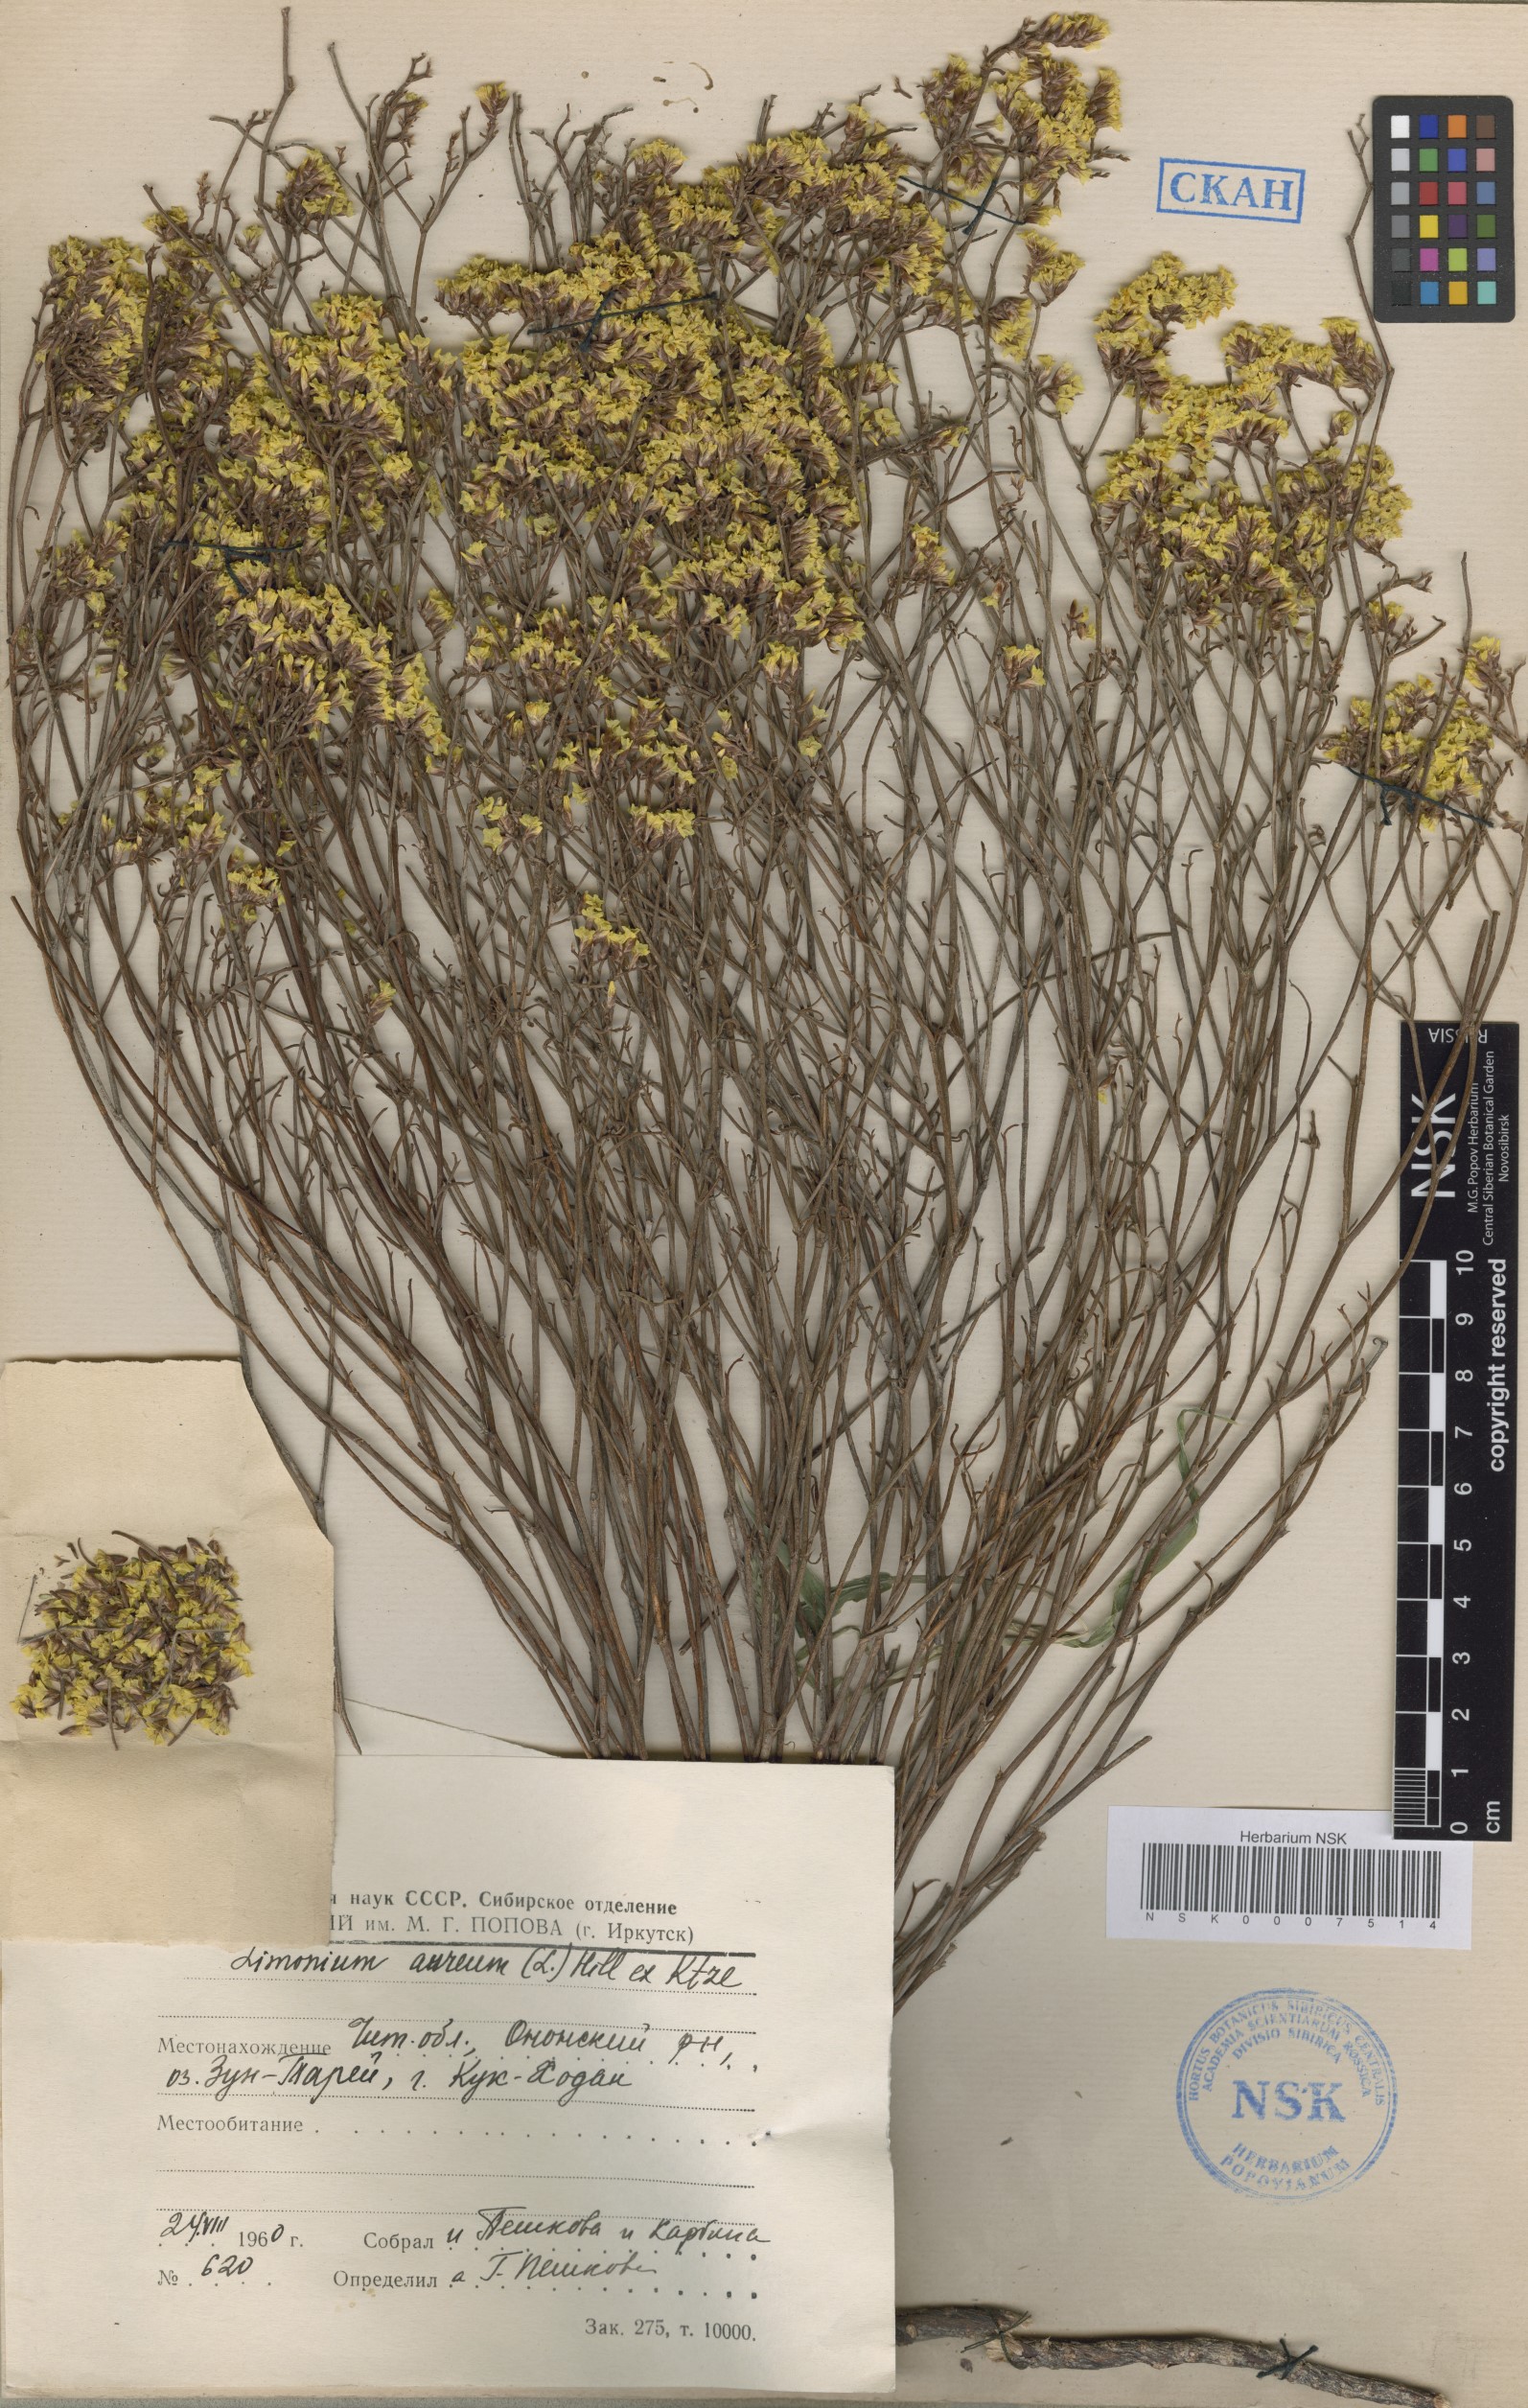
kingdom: Plantae
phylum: Tracheophyta
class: Magnoliopsida
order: Caryophyllales
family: Plumbaginaceae
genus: Limonium
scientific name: Limonium aureum
